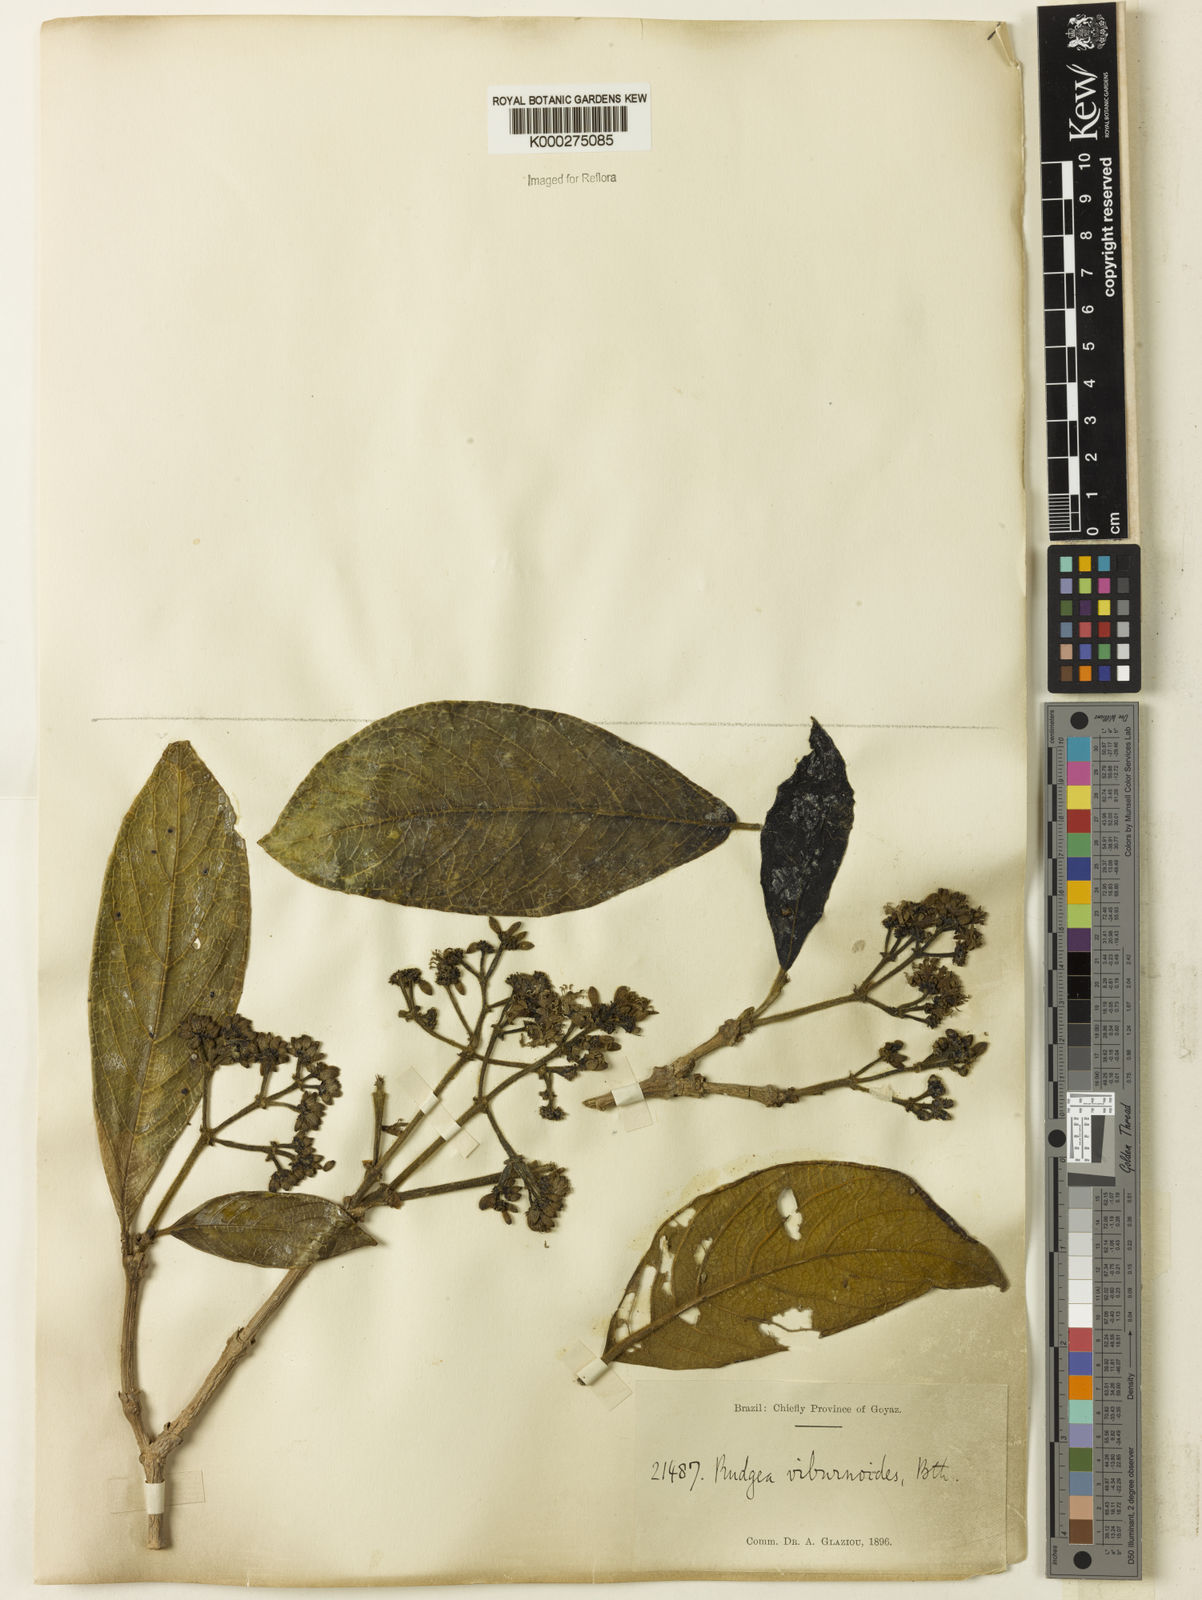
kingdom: Plantae
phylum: Tracheophyta
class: Magnoliopsida
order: Gentianales
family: Rubiaceae
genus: Rudgea
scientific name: Rudgea viburnoides
